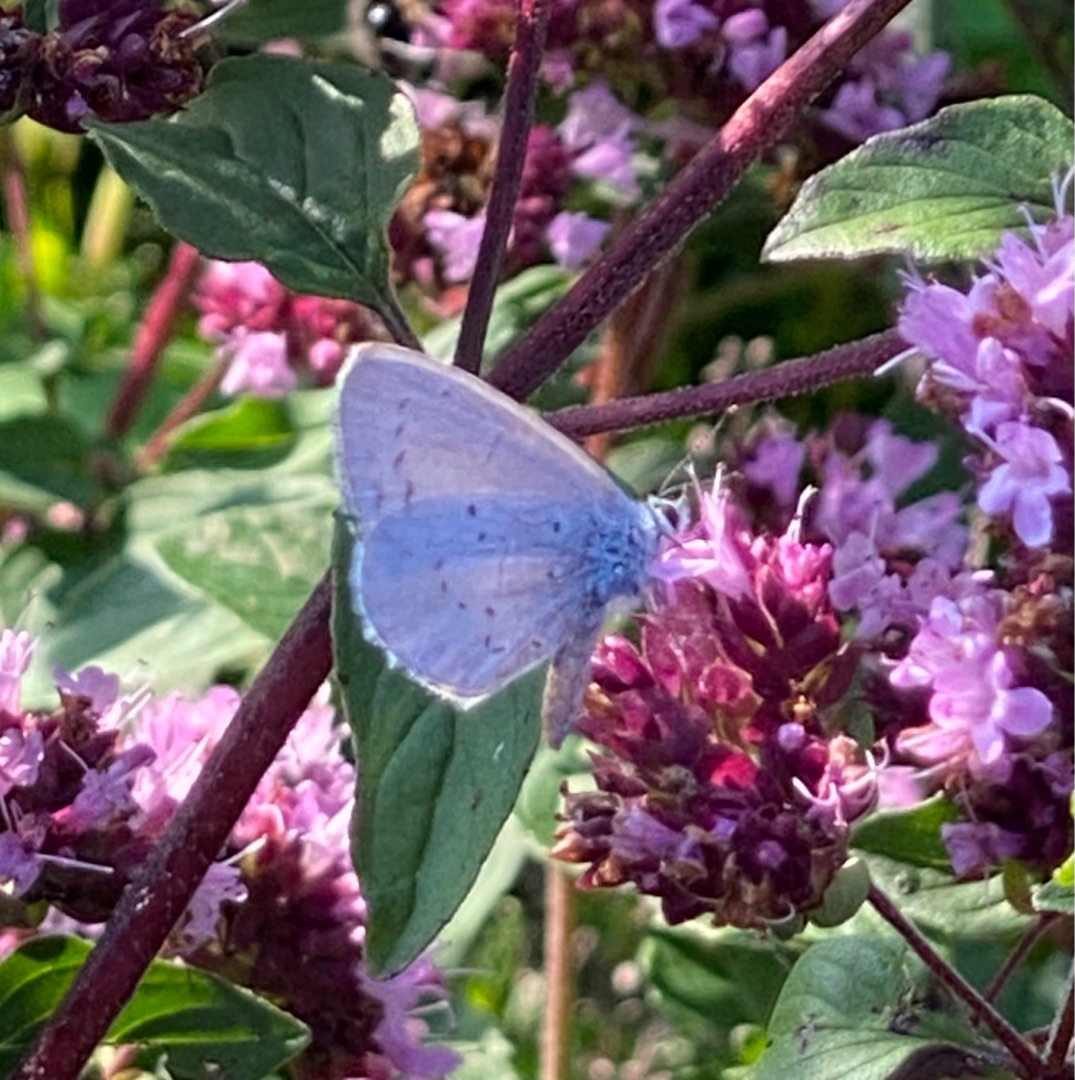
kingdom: Animalia
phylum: Arthropoda
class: Insecta
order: Lepidoptera
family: Lycaenidae
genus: Celastrina
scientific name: Celastrina argiolus
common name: Skovblåfugl
